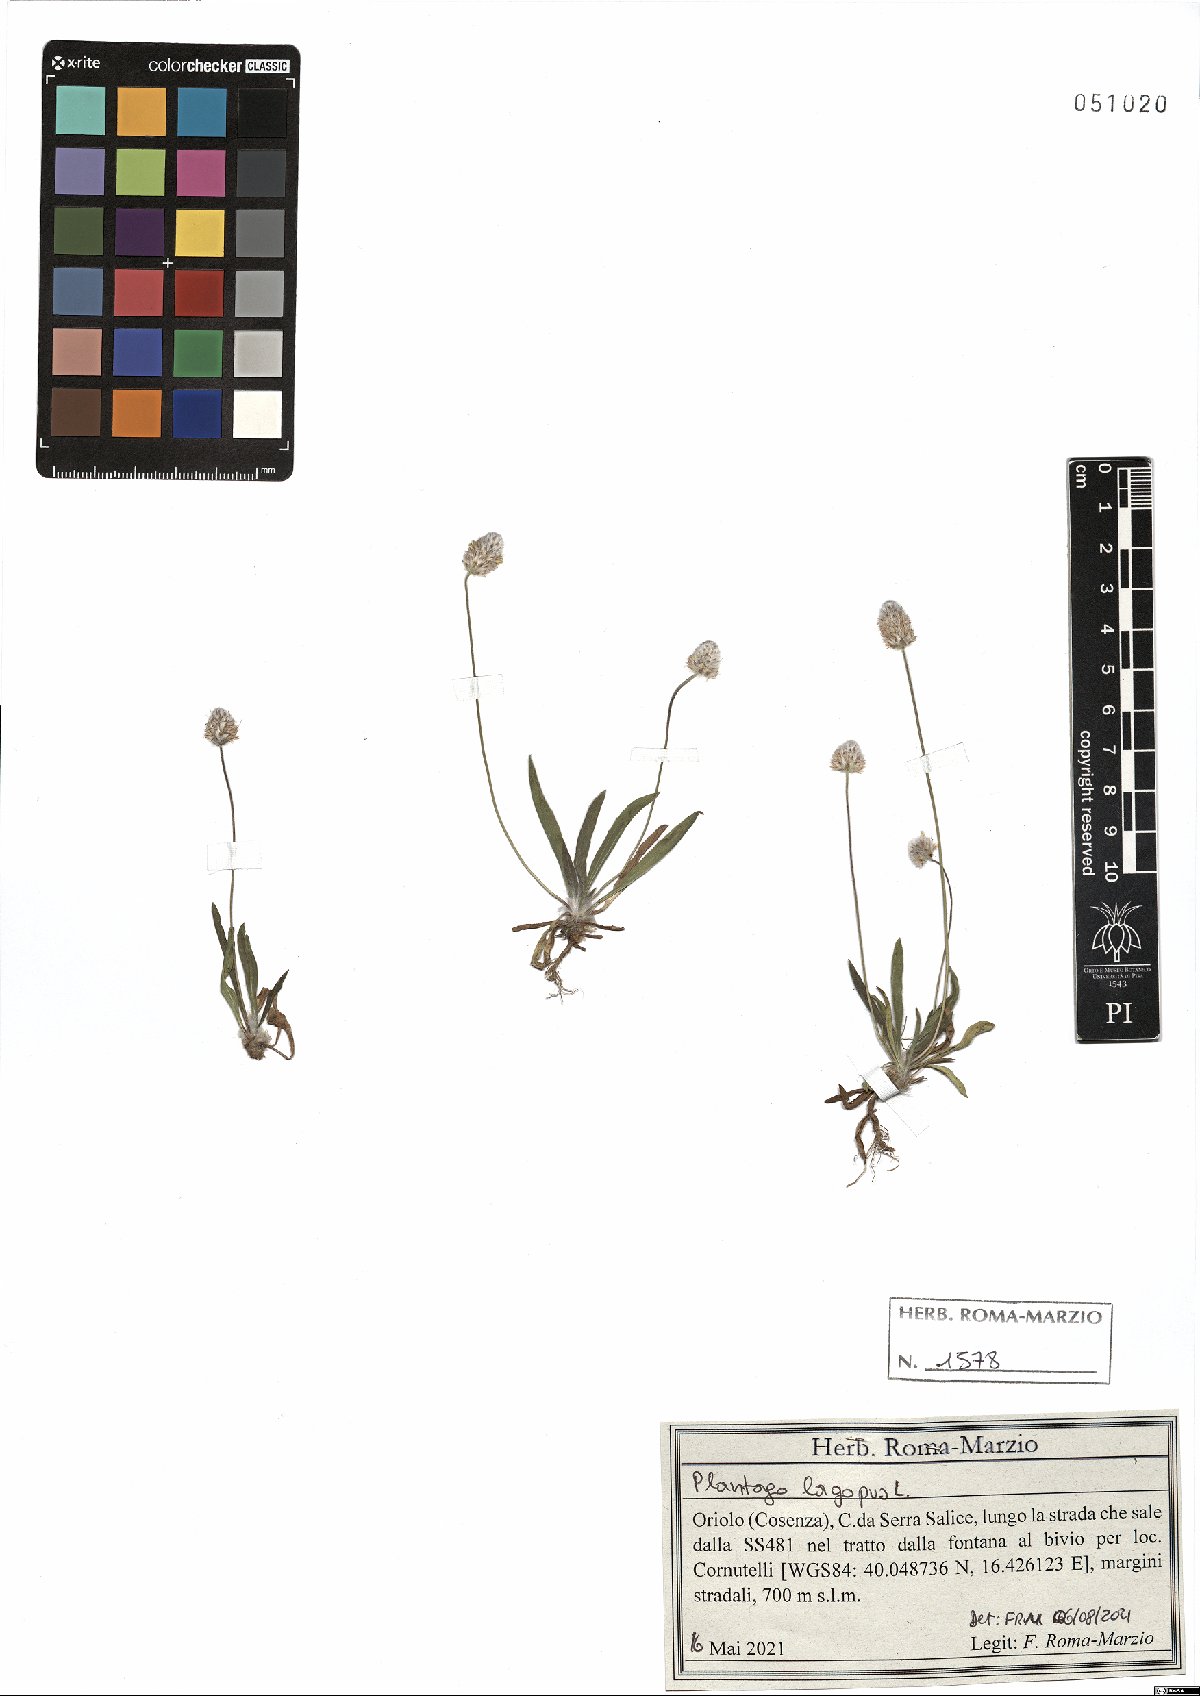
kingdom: Plantae
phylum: Tracheophyta
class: Magnoliopsida
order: Lamiales
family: Plantaginaceae
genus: Plantago
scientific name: Plantago lagopus
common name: Hare-foot plantain
